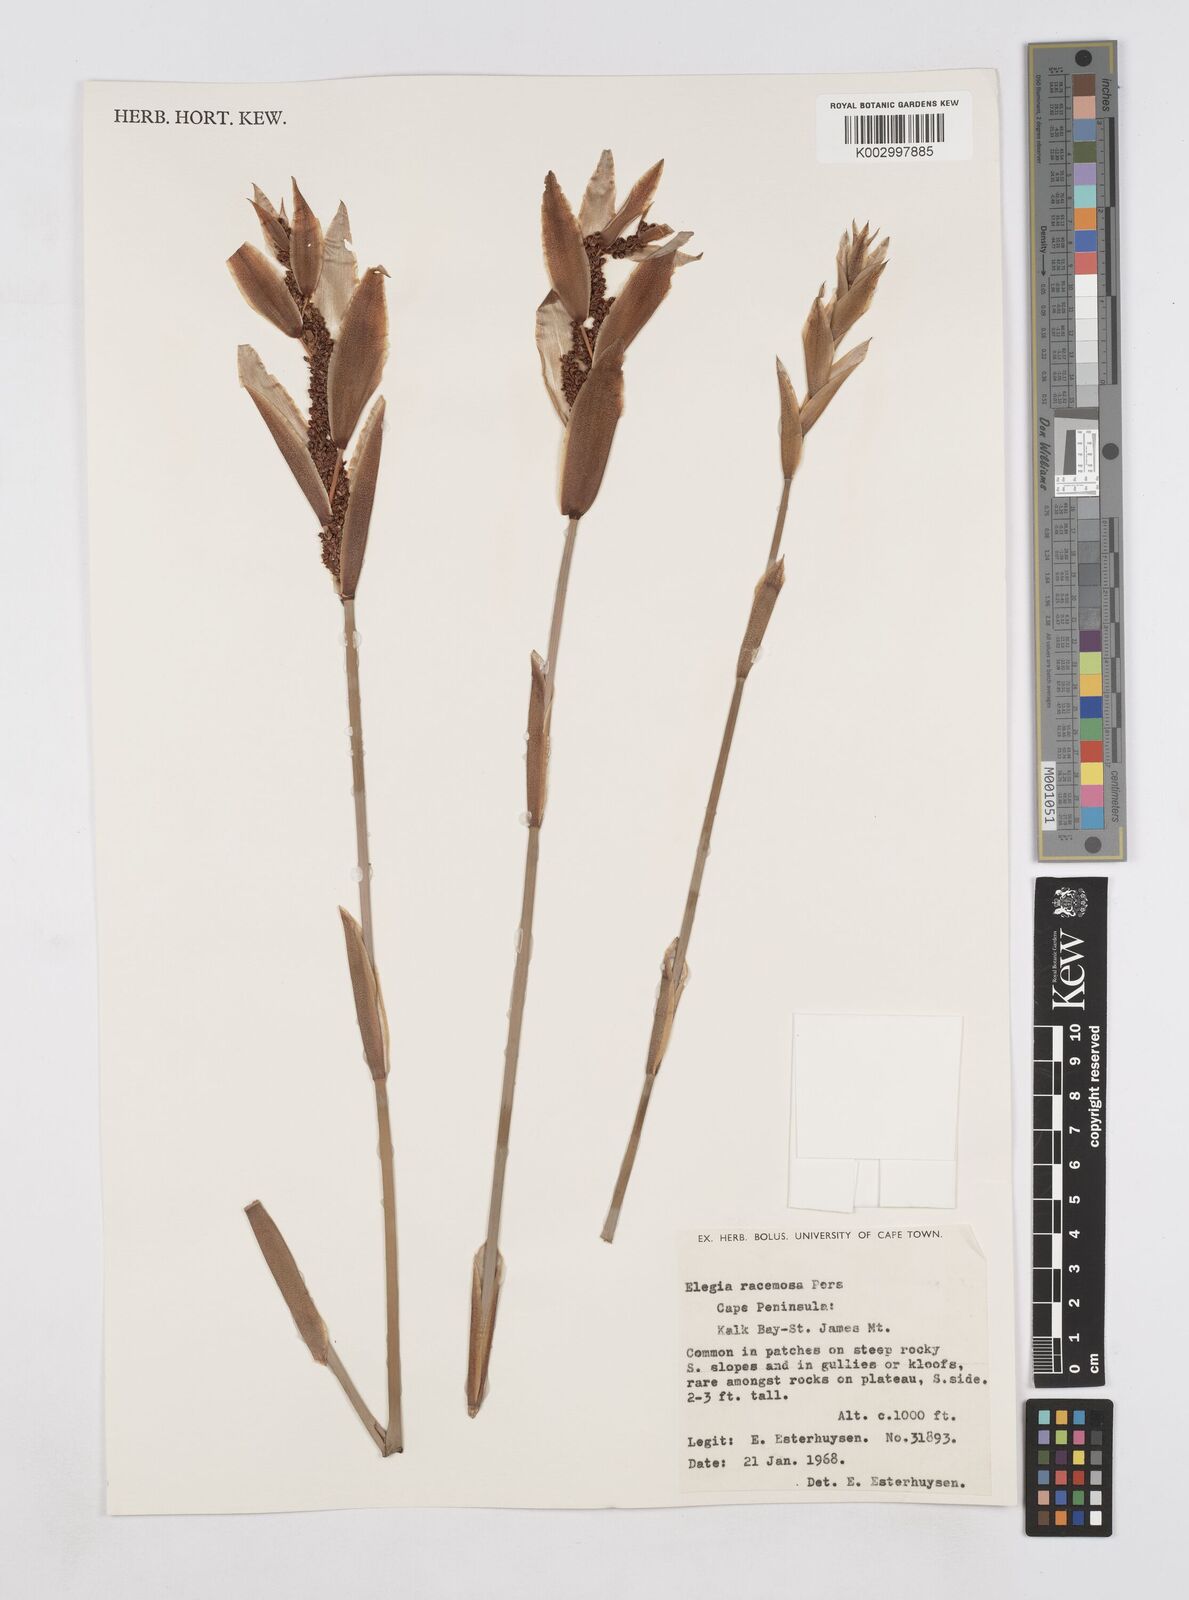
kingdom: Plantae
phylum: Tracheophyta
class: Liliopsida
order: Poales
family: Restionaceae
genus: Elegia
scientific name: Elegia racemosa
